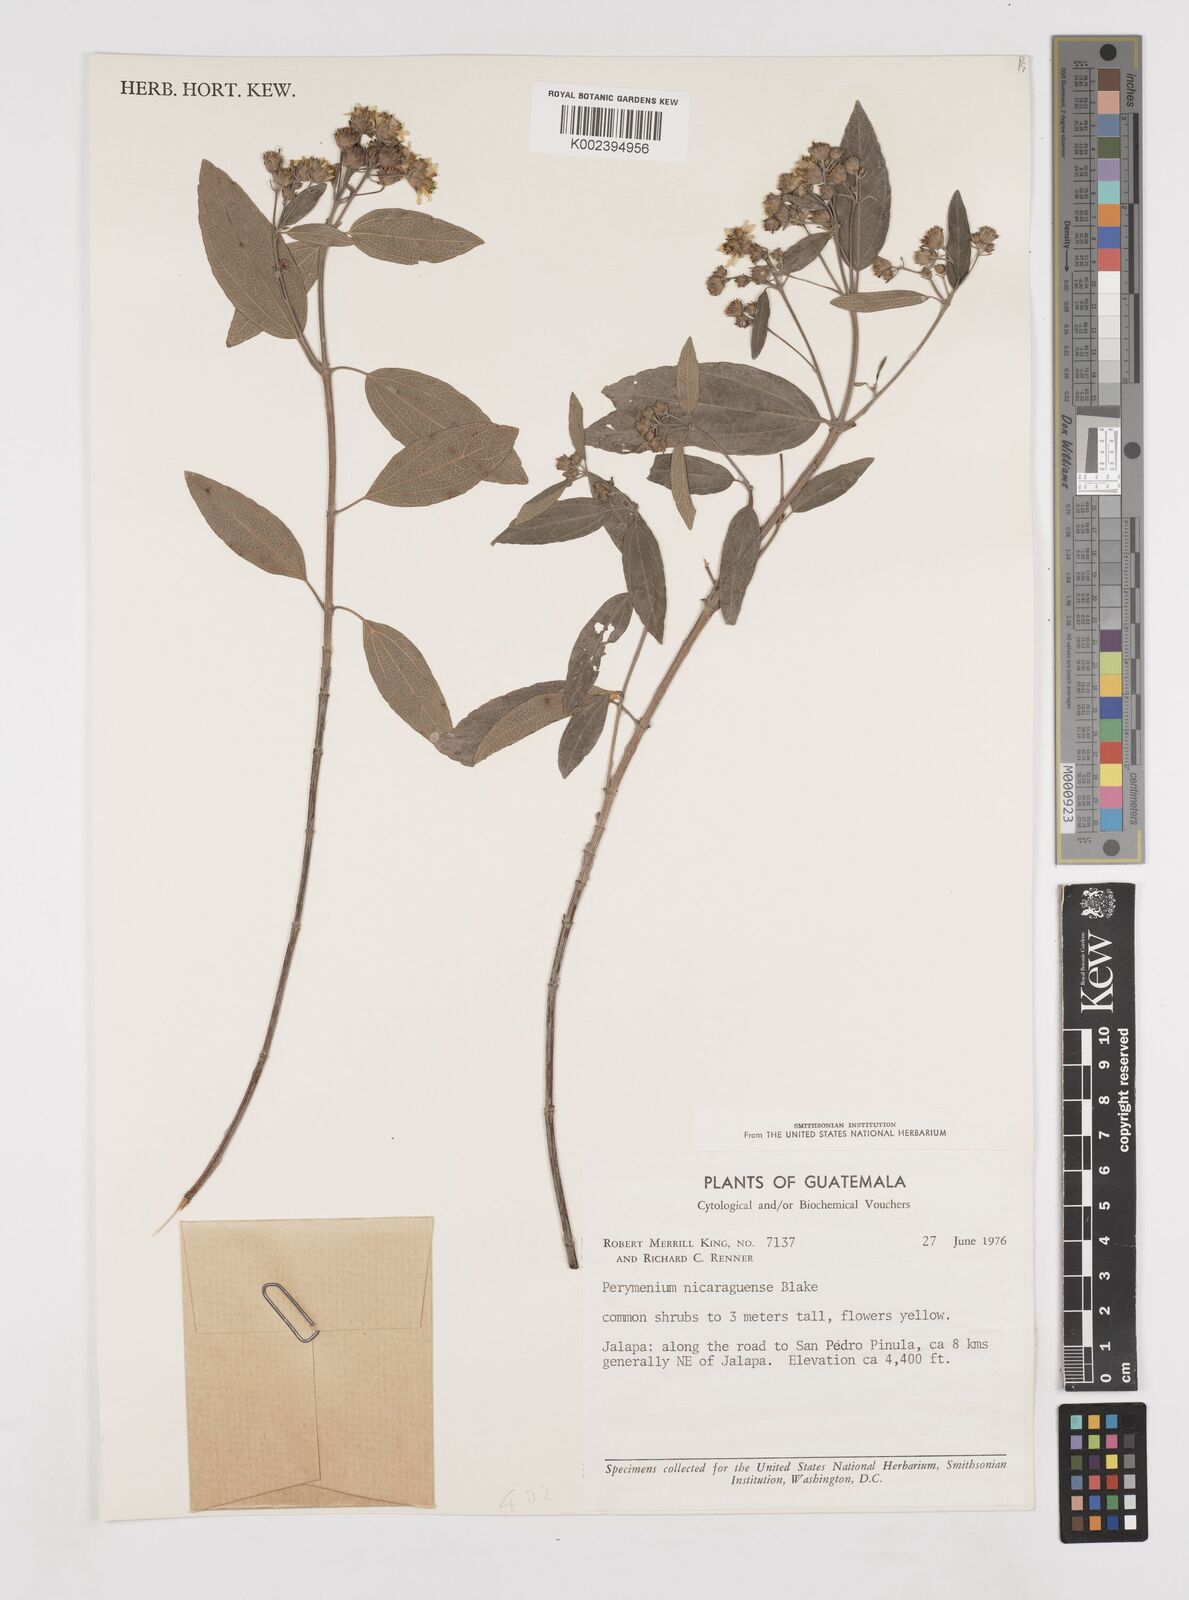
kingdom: Plantae
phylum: Tracheophyta
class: Magnoliopsida
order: Asterales
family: Asteraceae
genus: Perymenium
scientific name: Perymenium nicaraguense
